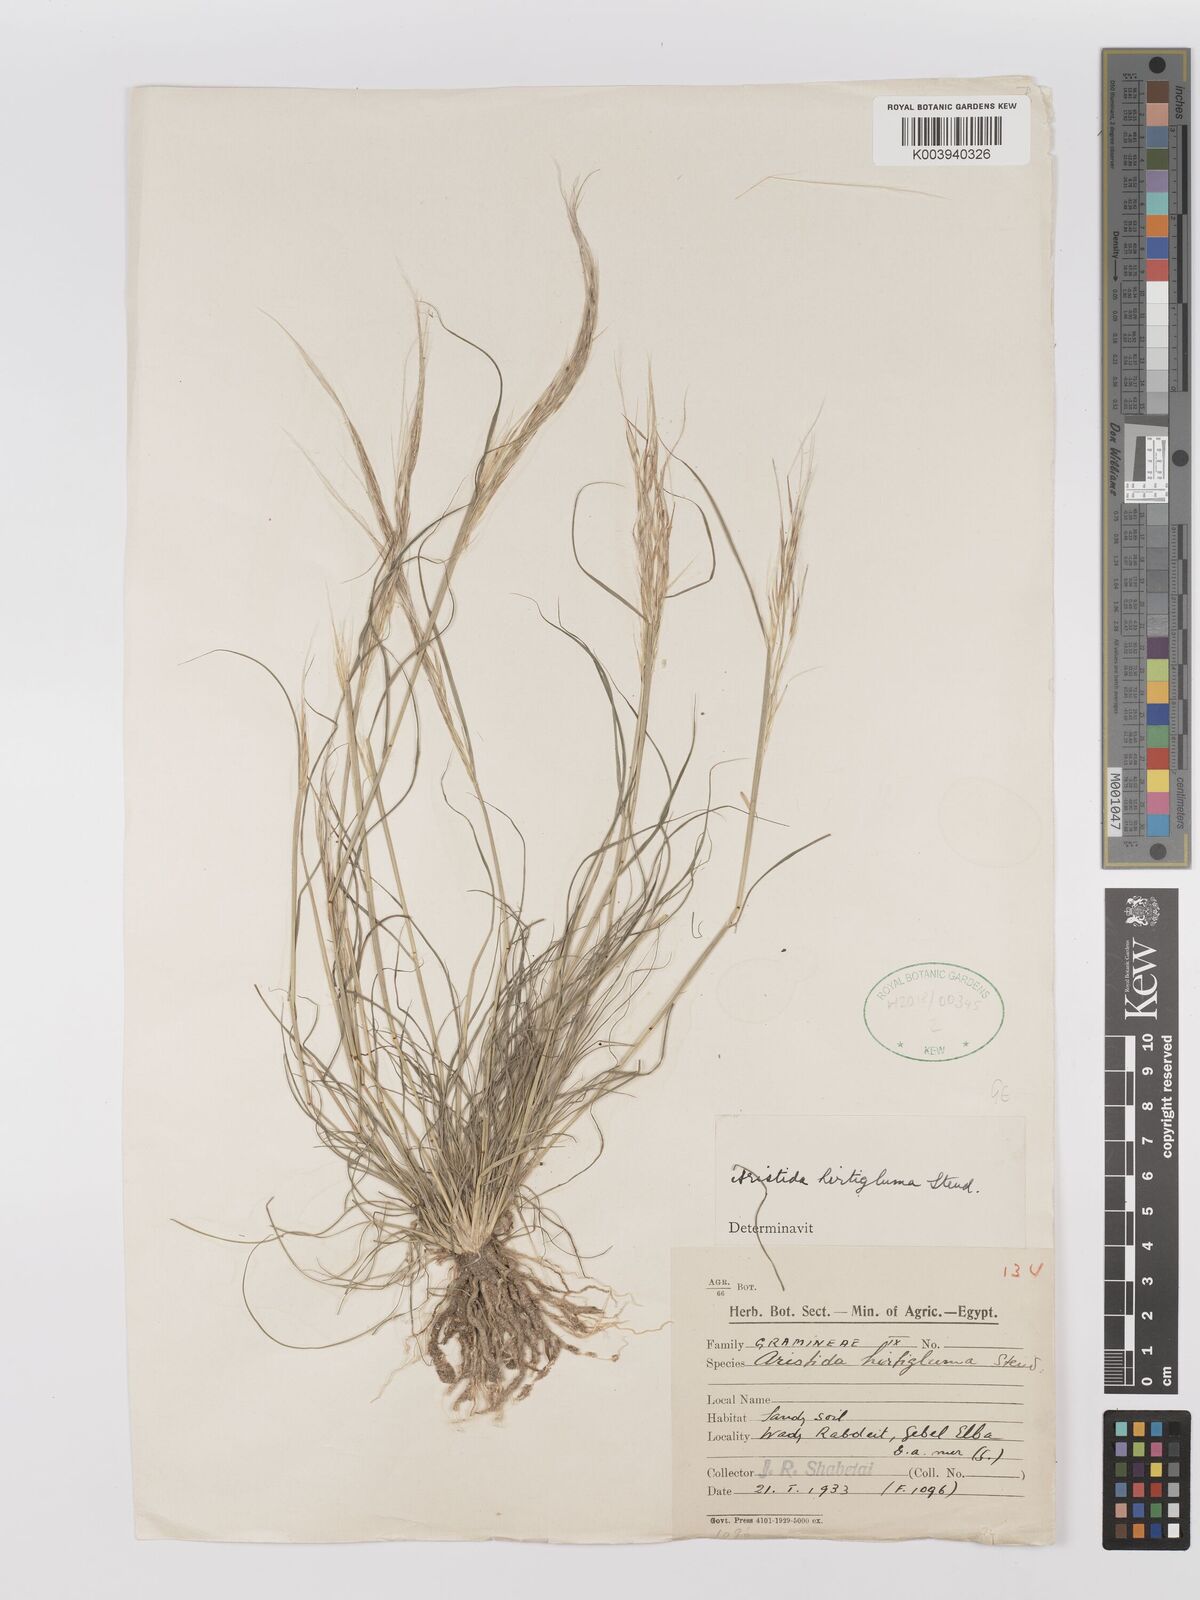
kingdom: Plantae
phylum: Tracheophyta
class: Liliopsida
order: Poales
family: Poaceae
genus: Stipagrostis
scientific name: Stipagrostis hirtigluma
